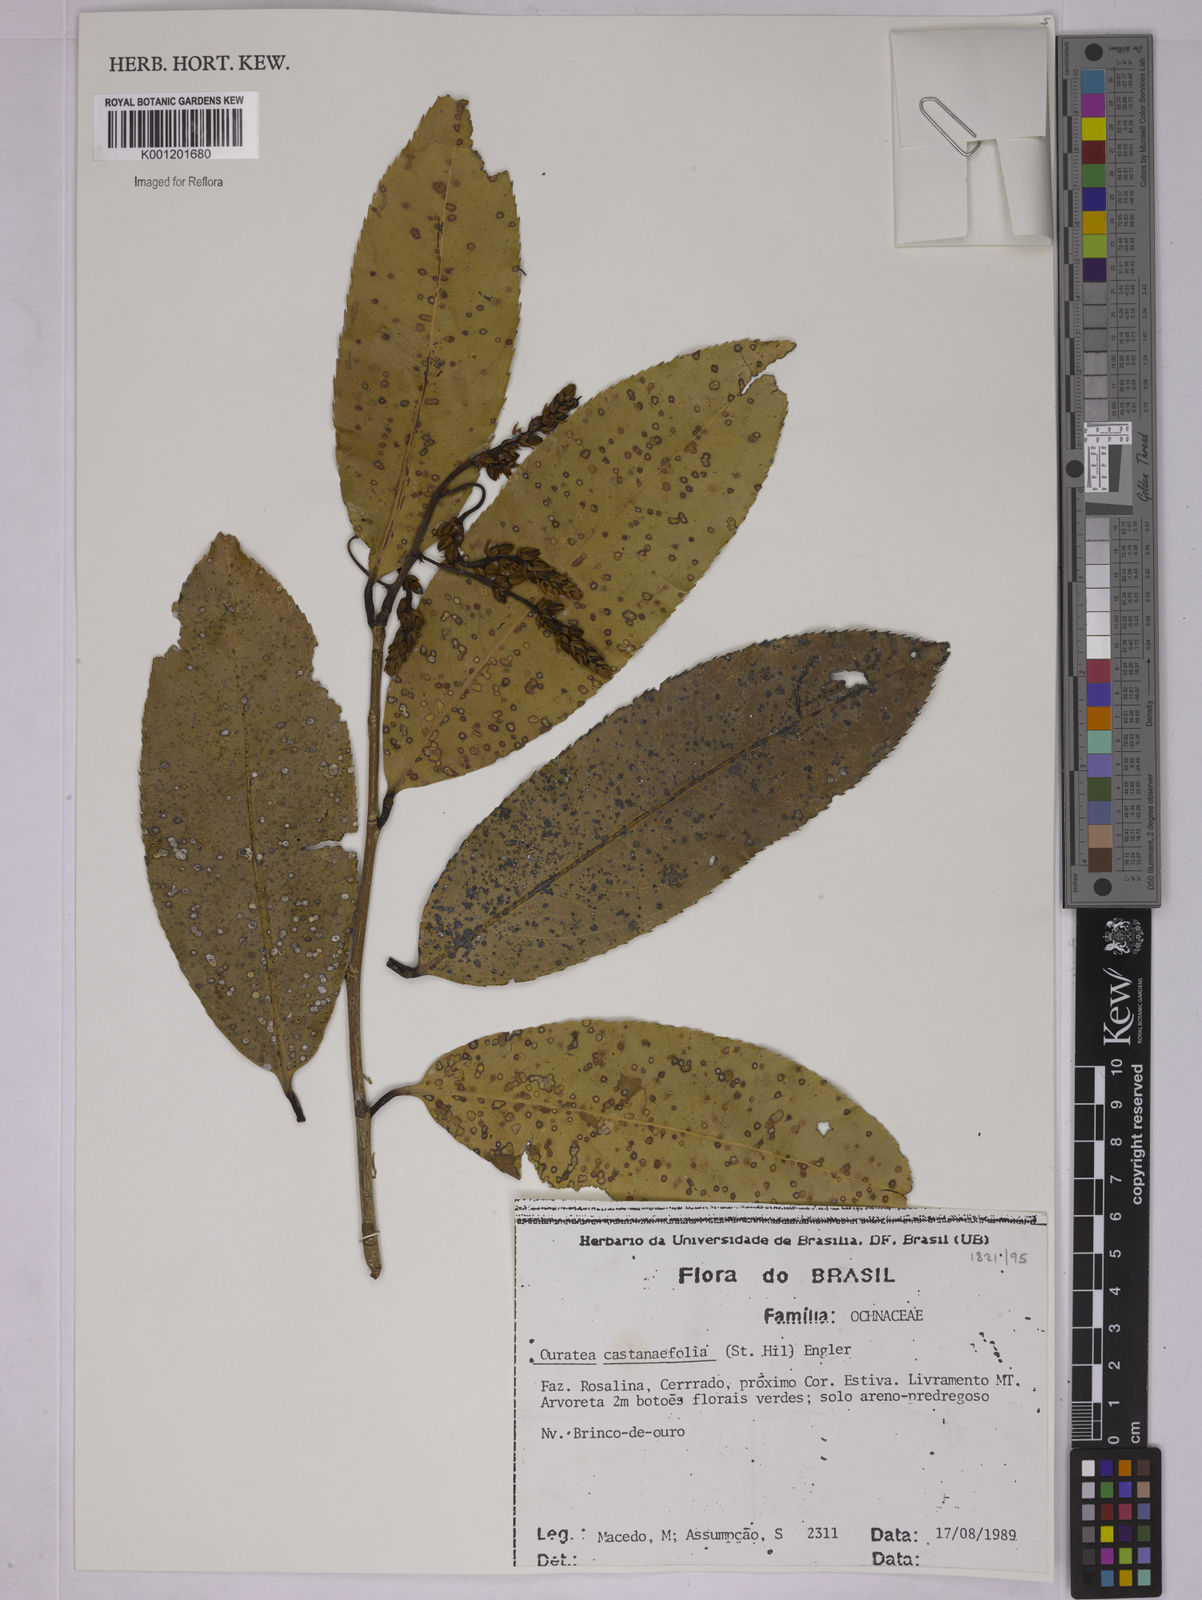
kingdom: Plantae
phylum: Tracheophyta
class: Magnoliopsida
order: Malpighiales
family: Ochnaceae
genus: Ouratea
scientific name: Ouratea castaneifolia
